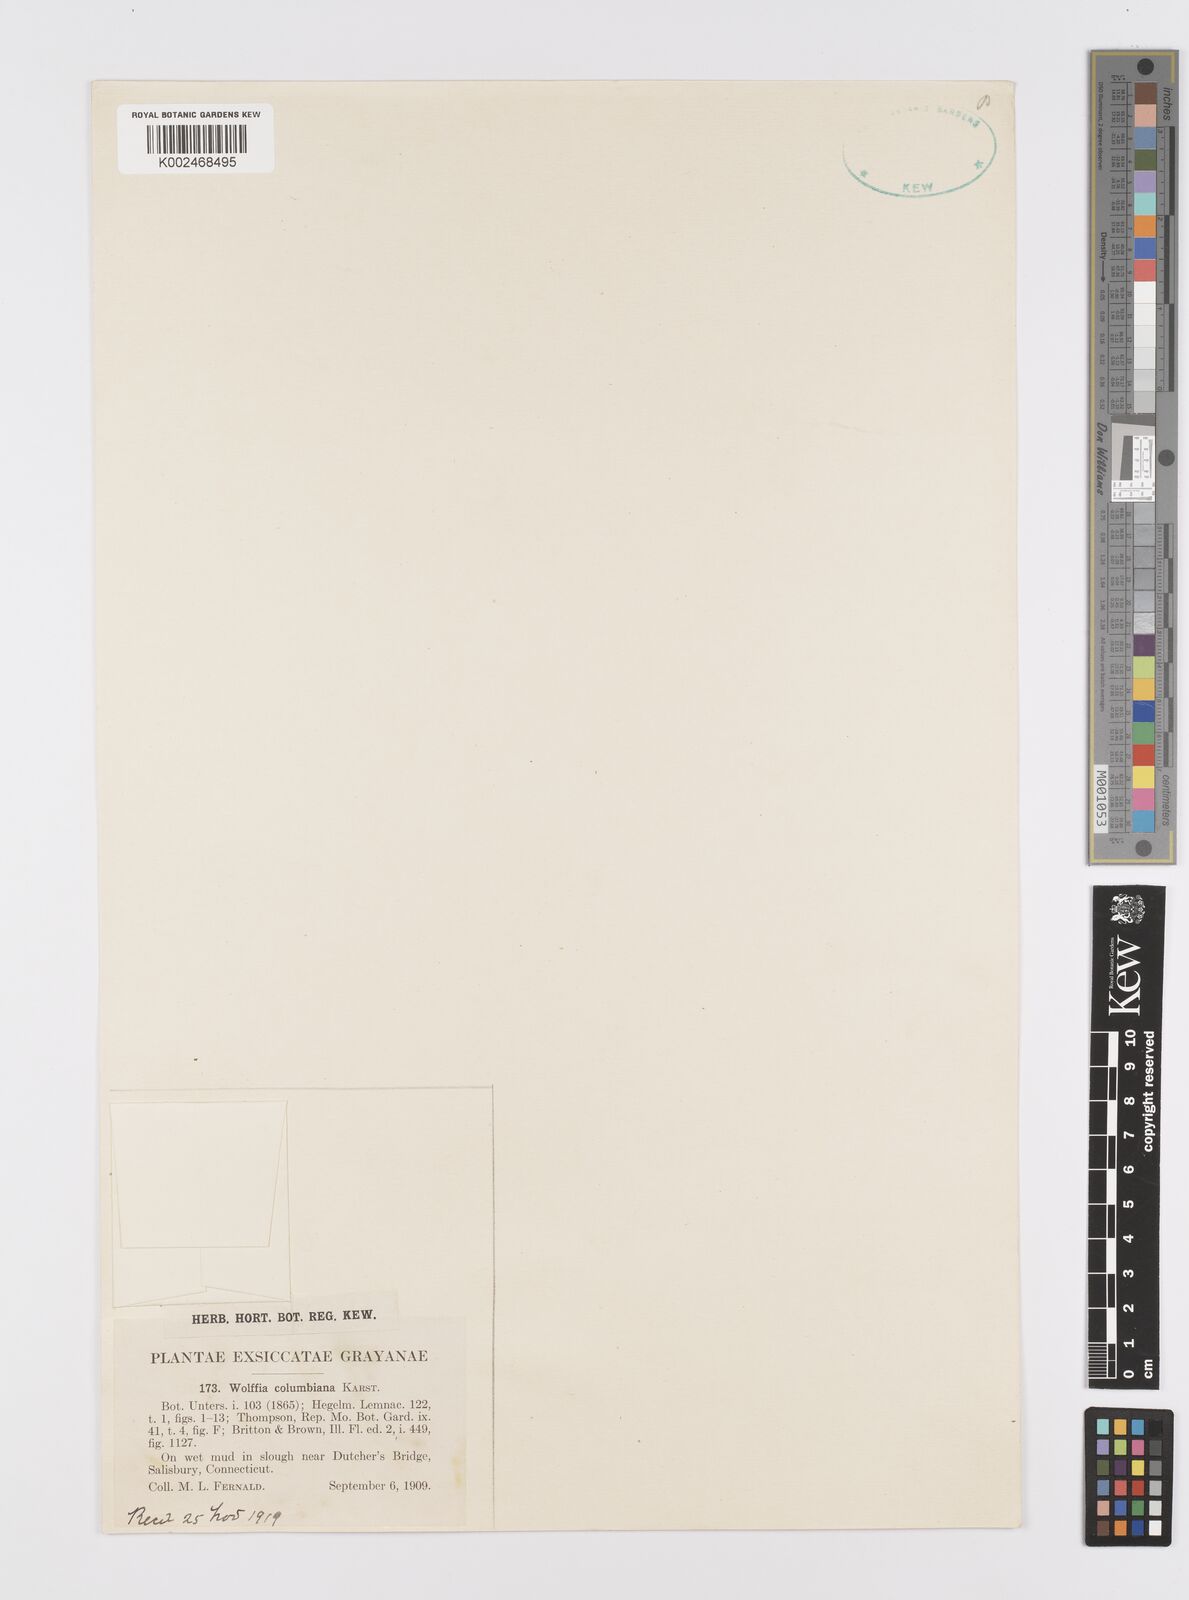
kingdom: Plantae
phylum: Tracheophyta
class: Liliopsida
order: Alismatales
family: Araceae
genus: Wolffia
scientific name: Wolffia columbiana
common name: Columbia watermeal
